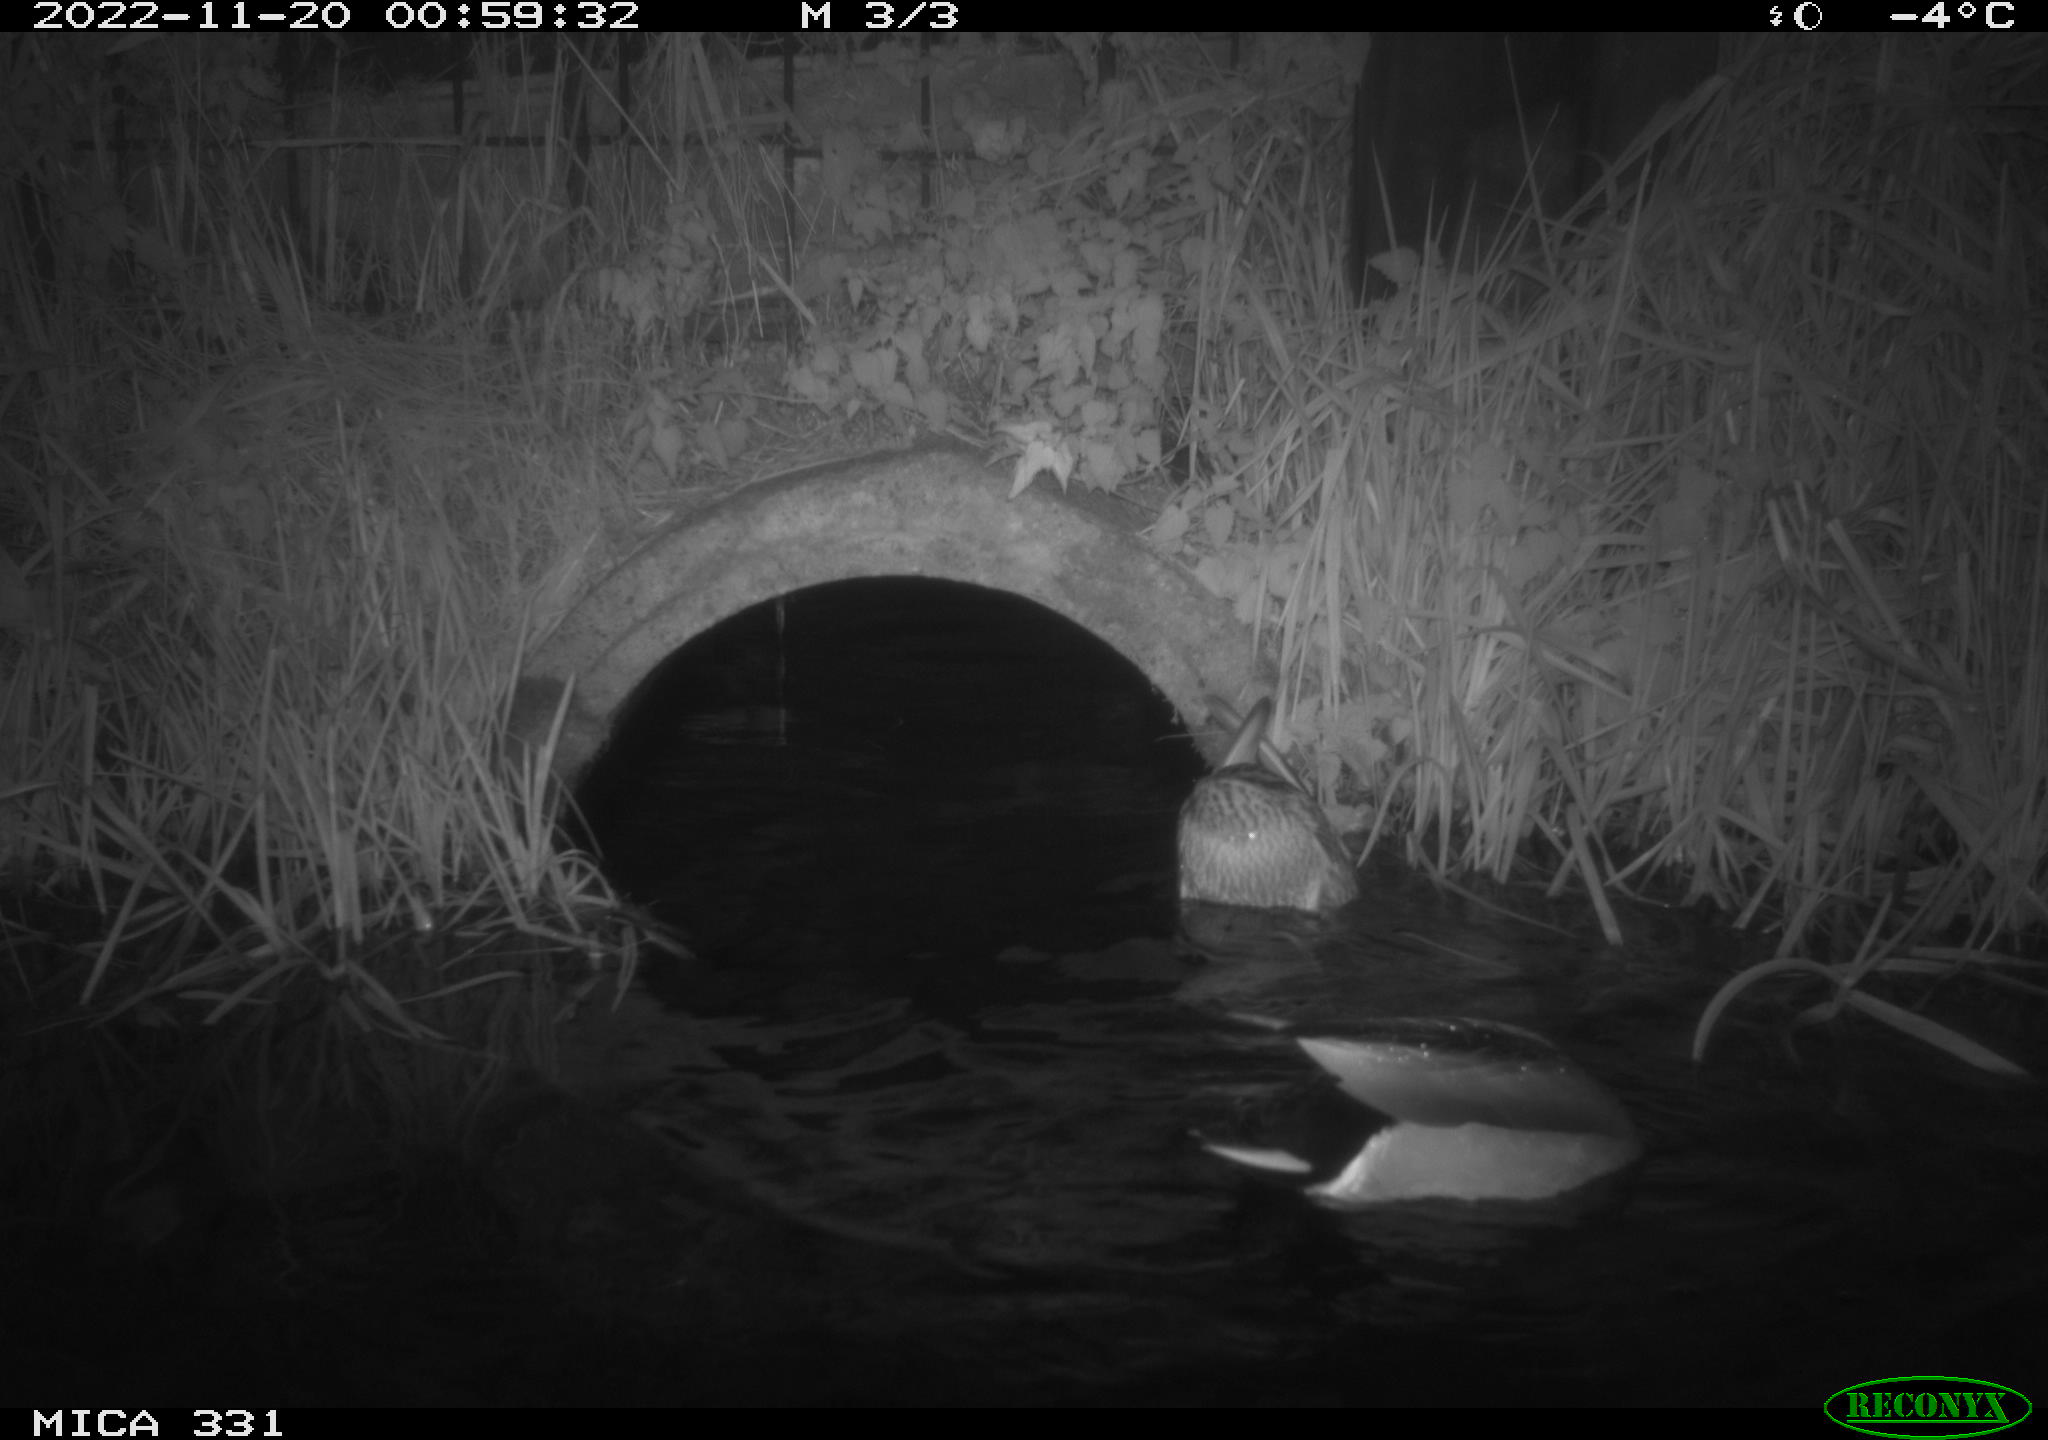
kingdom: Animalia
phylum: Chordata
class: Aves
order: Anseriformes
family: Anatidae
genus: Anas
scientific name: Anas platyrhynchos
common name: Mallard
